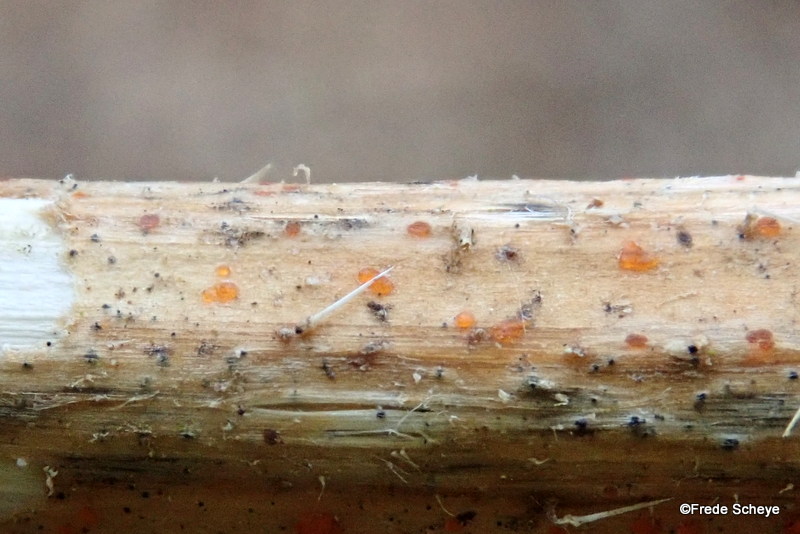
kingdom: Fungi
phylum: Ascomycota
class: Leotiomycetes
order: Helotiales
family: Calloriaceae
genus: Calloria
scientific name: Calloria urticae
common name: nælde-orangeskive
